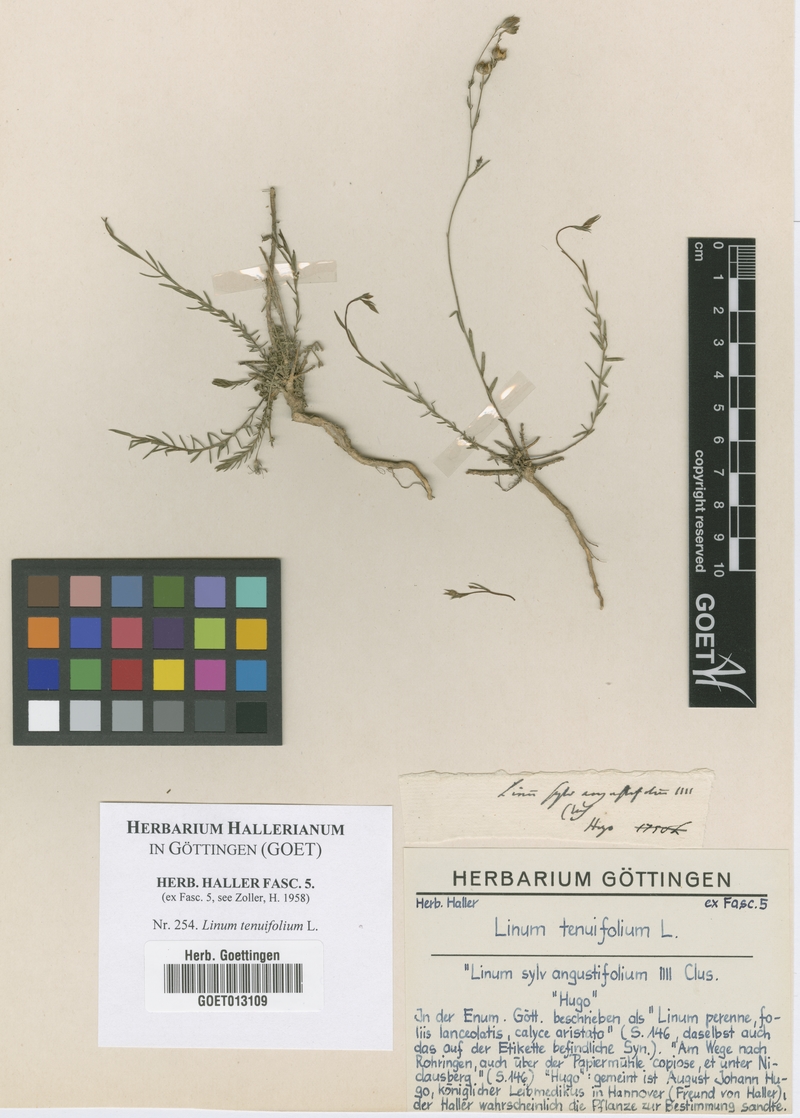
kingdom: Plantae
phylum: Tracheophyta
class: Magnoliopsida
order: Malpighiales
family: Linaceae
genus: Linum
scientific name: Linum tenuifolium
